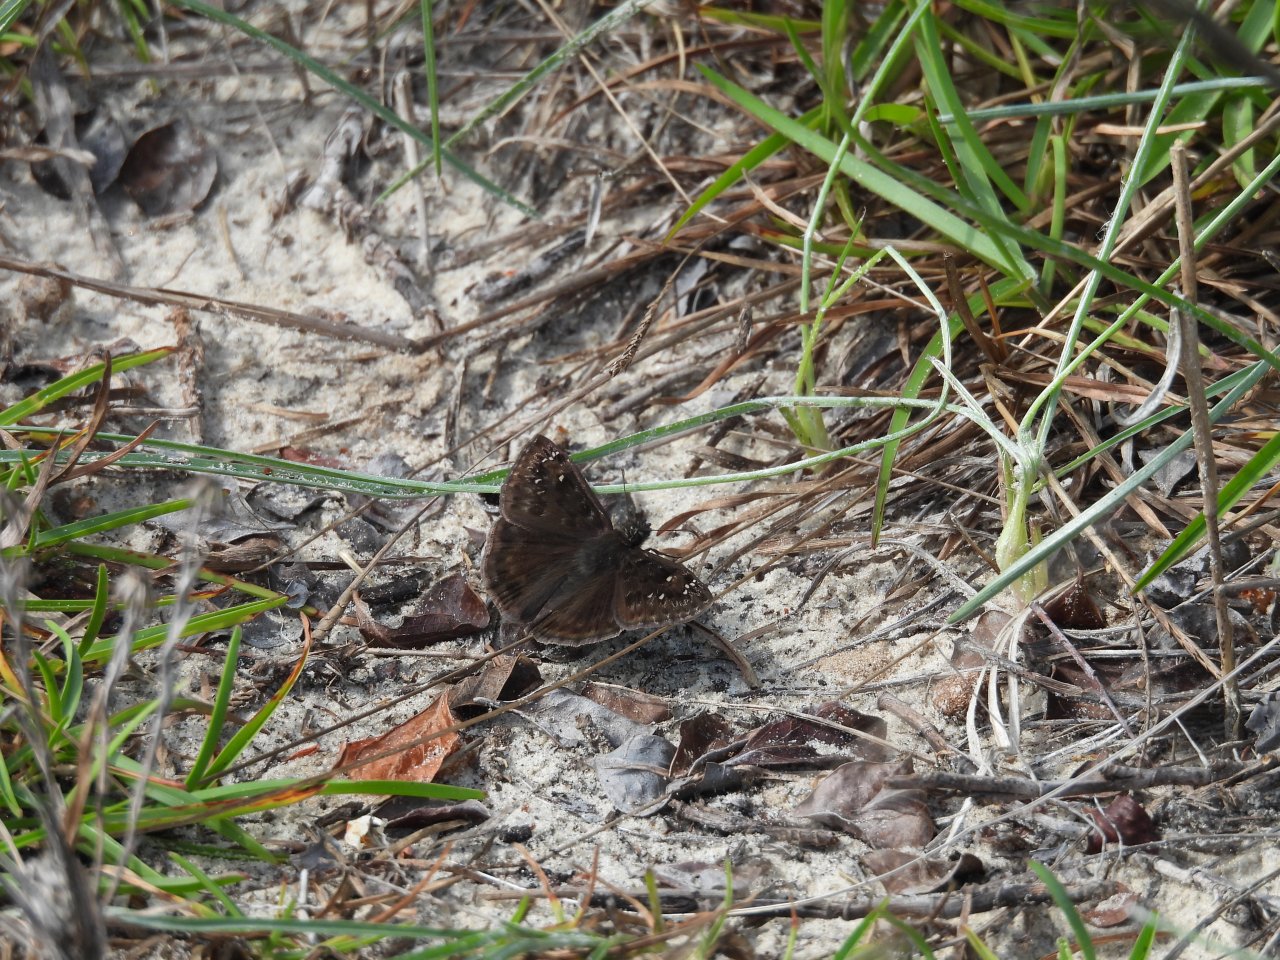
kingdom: Animalia
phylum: Arthropoda
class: Insecta
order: Lepidoptera
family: Hesperiidae
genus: Gesta
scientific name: Gesta
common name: Horace's Duskywing
